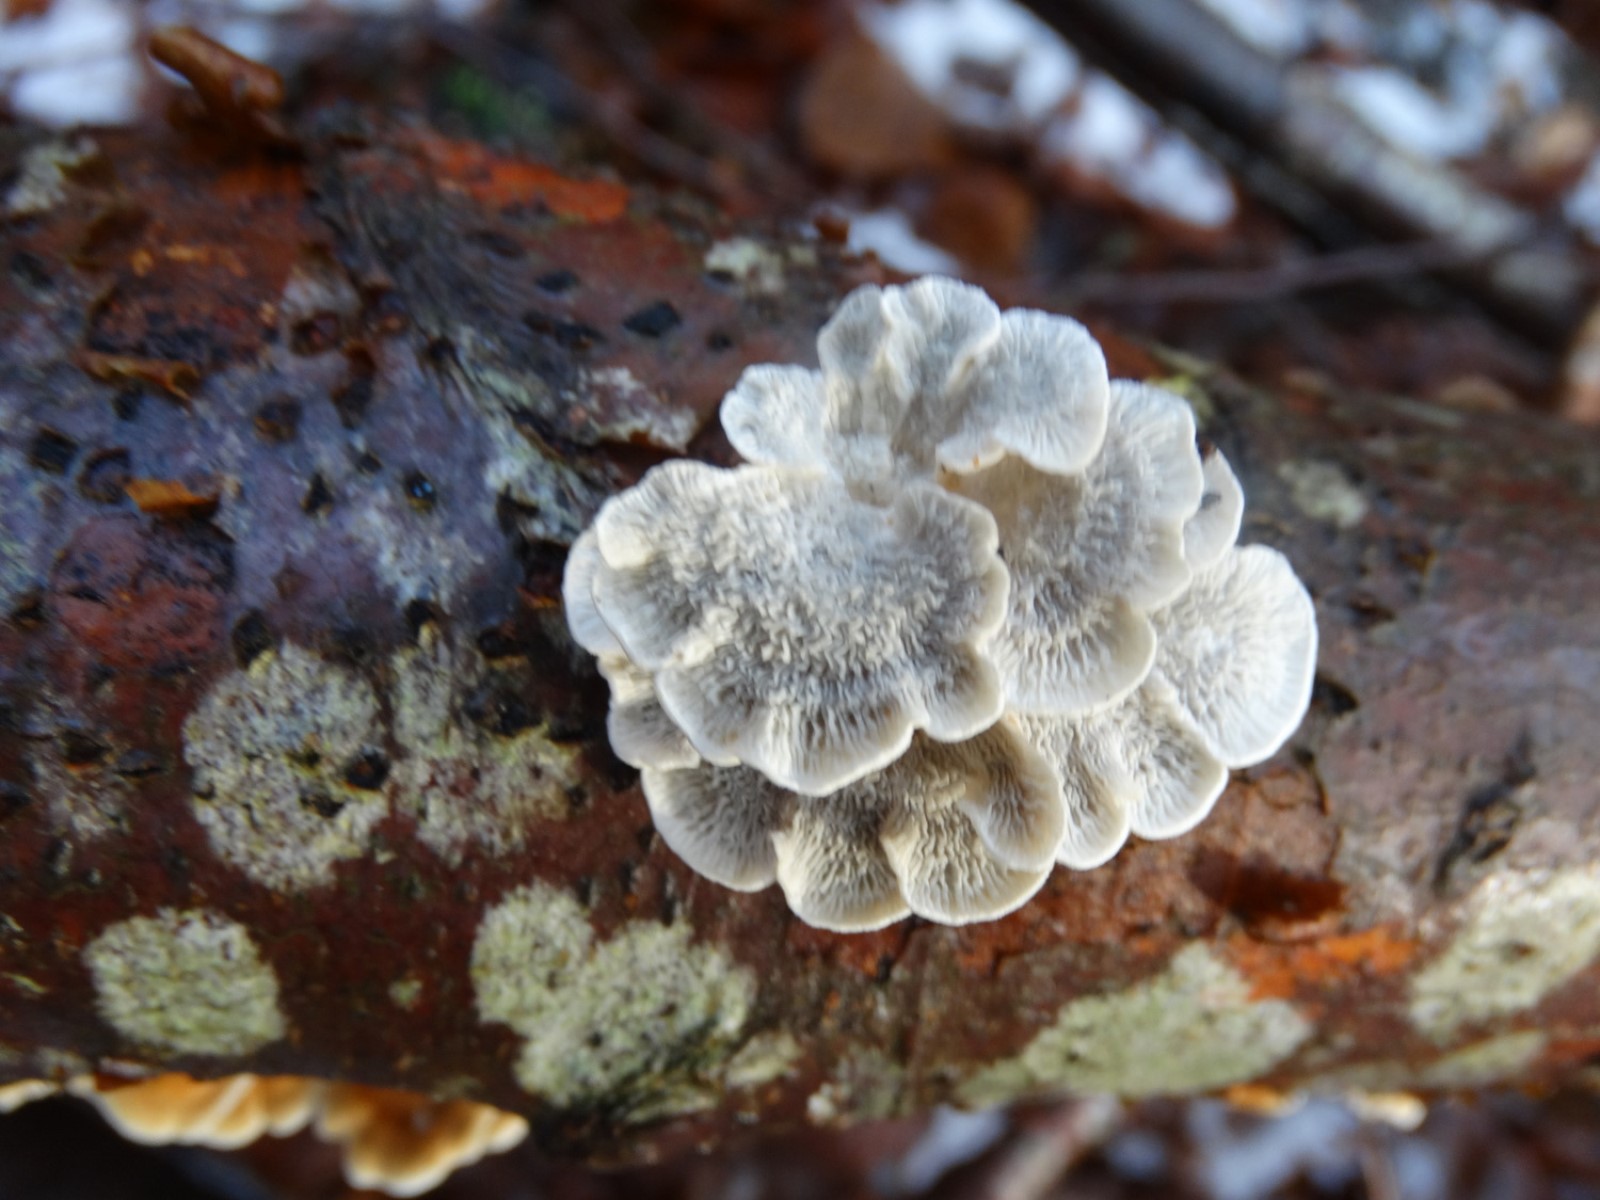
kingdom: Fungi
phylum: Basidiomycota
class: Agaricomycetes
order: Amylocorticiales
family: Amylocorticiaceae
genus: Plicaturopsis
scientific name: Plicaturopsis crispa
